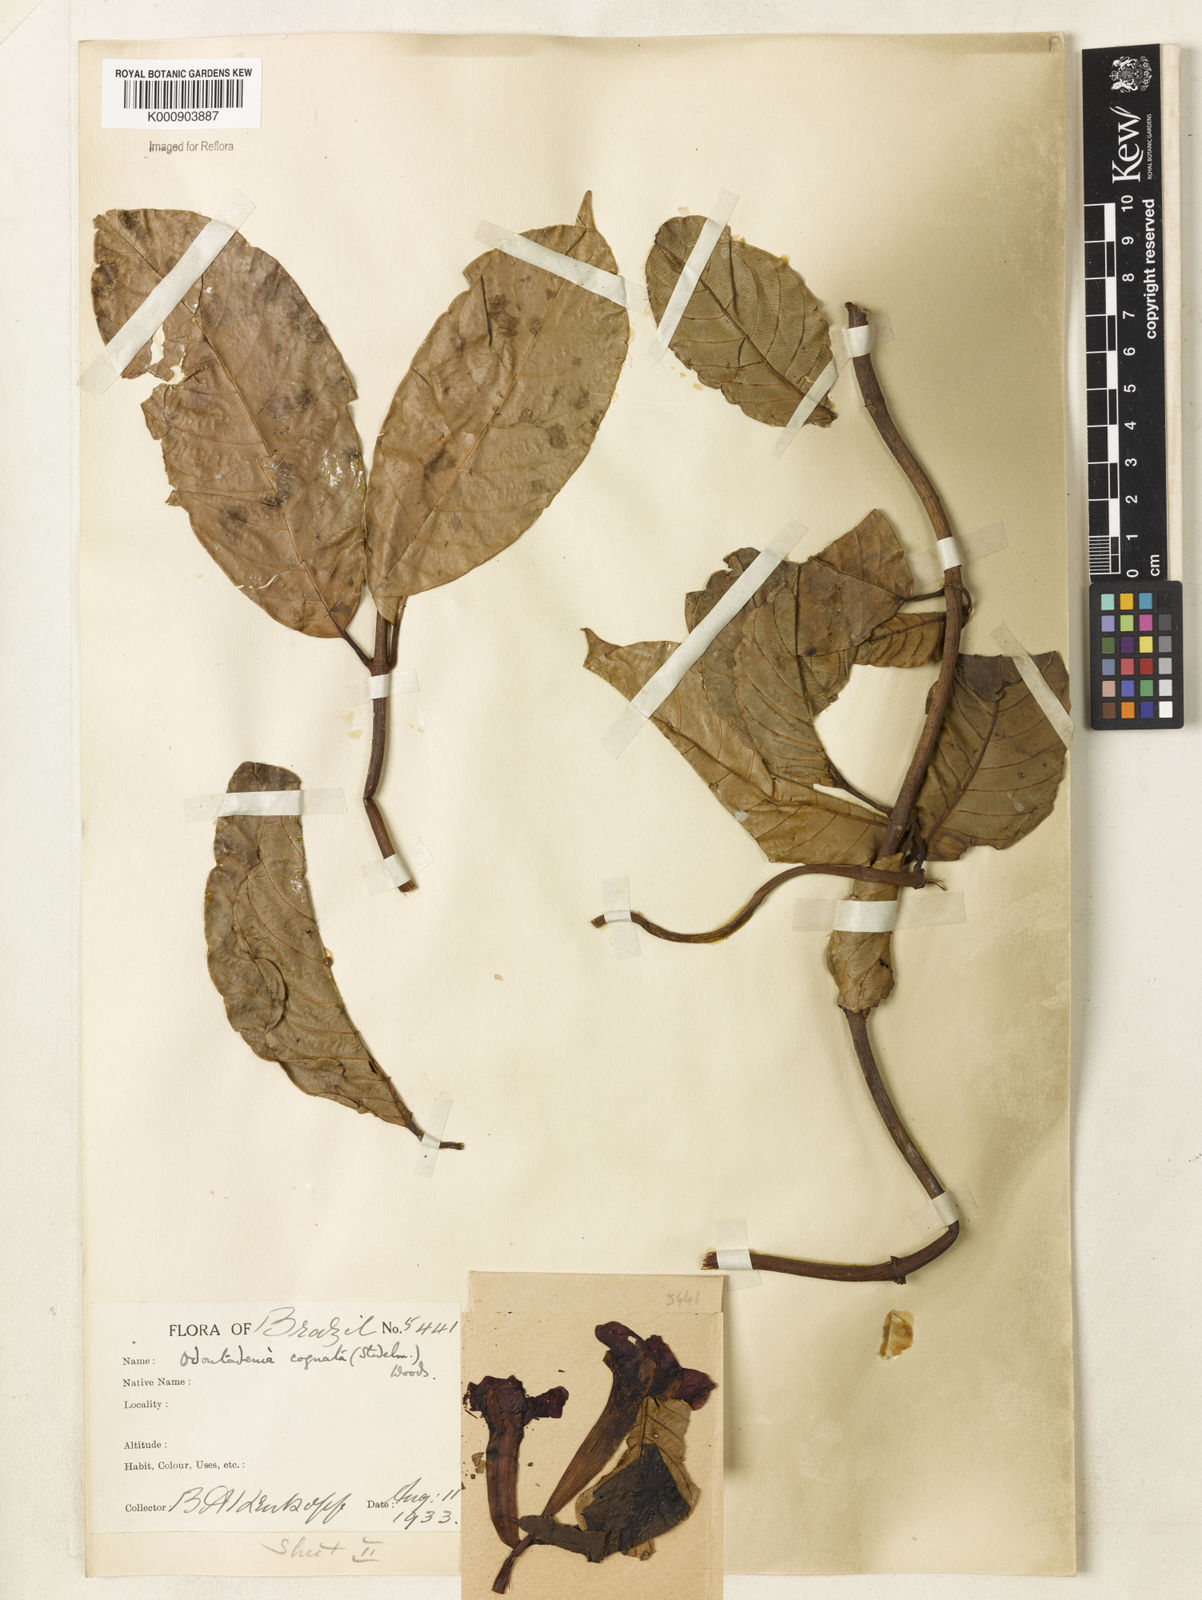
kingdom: Plantae
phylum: Tracheophyta
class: Magnoliopsida
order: Gentianales
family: Apocynaceae
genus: Odontadenia
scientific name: Odontadenia verrucosa
